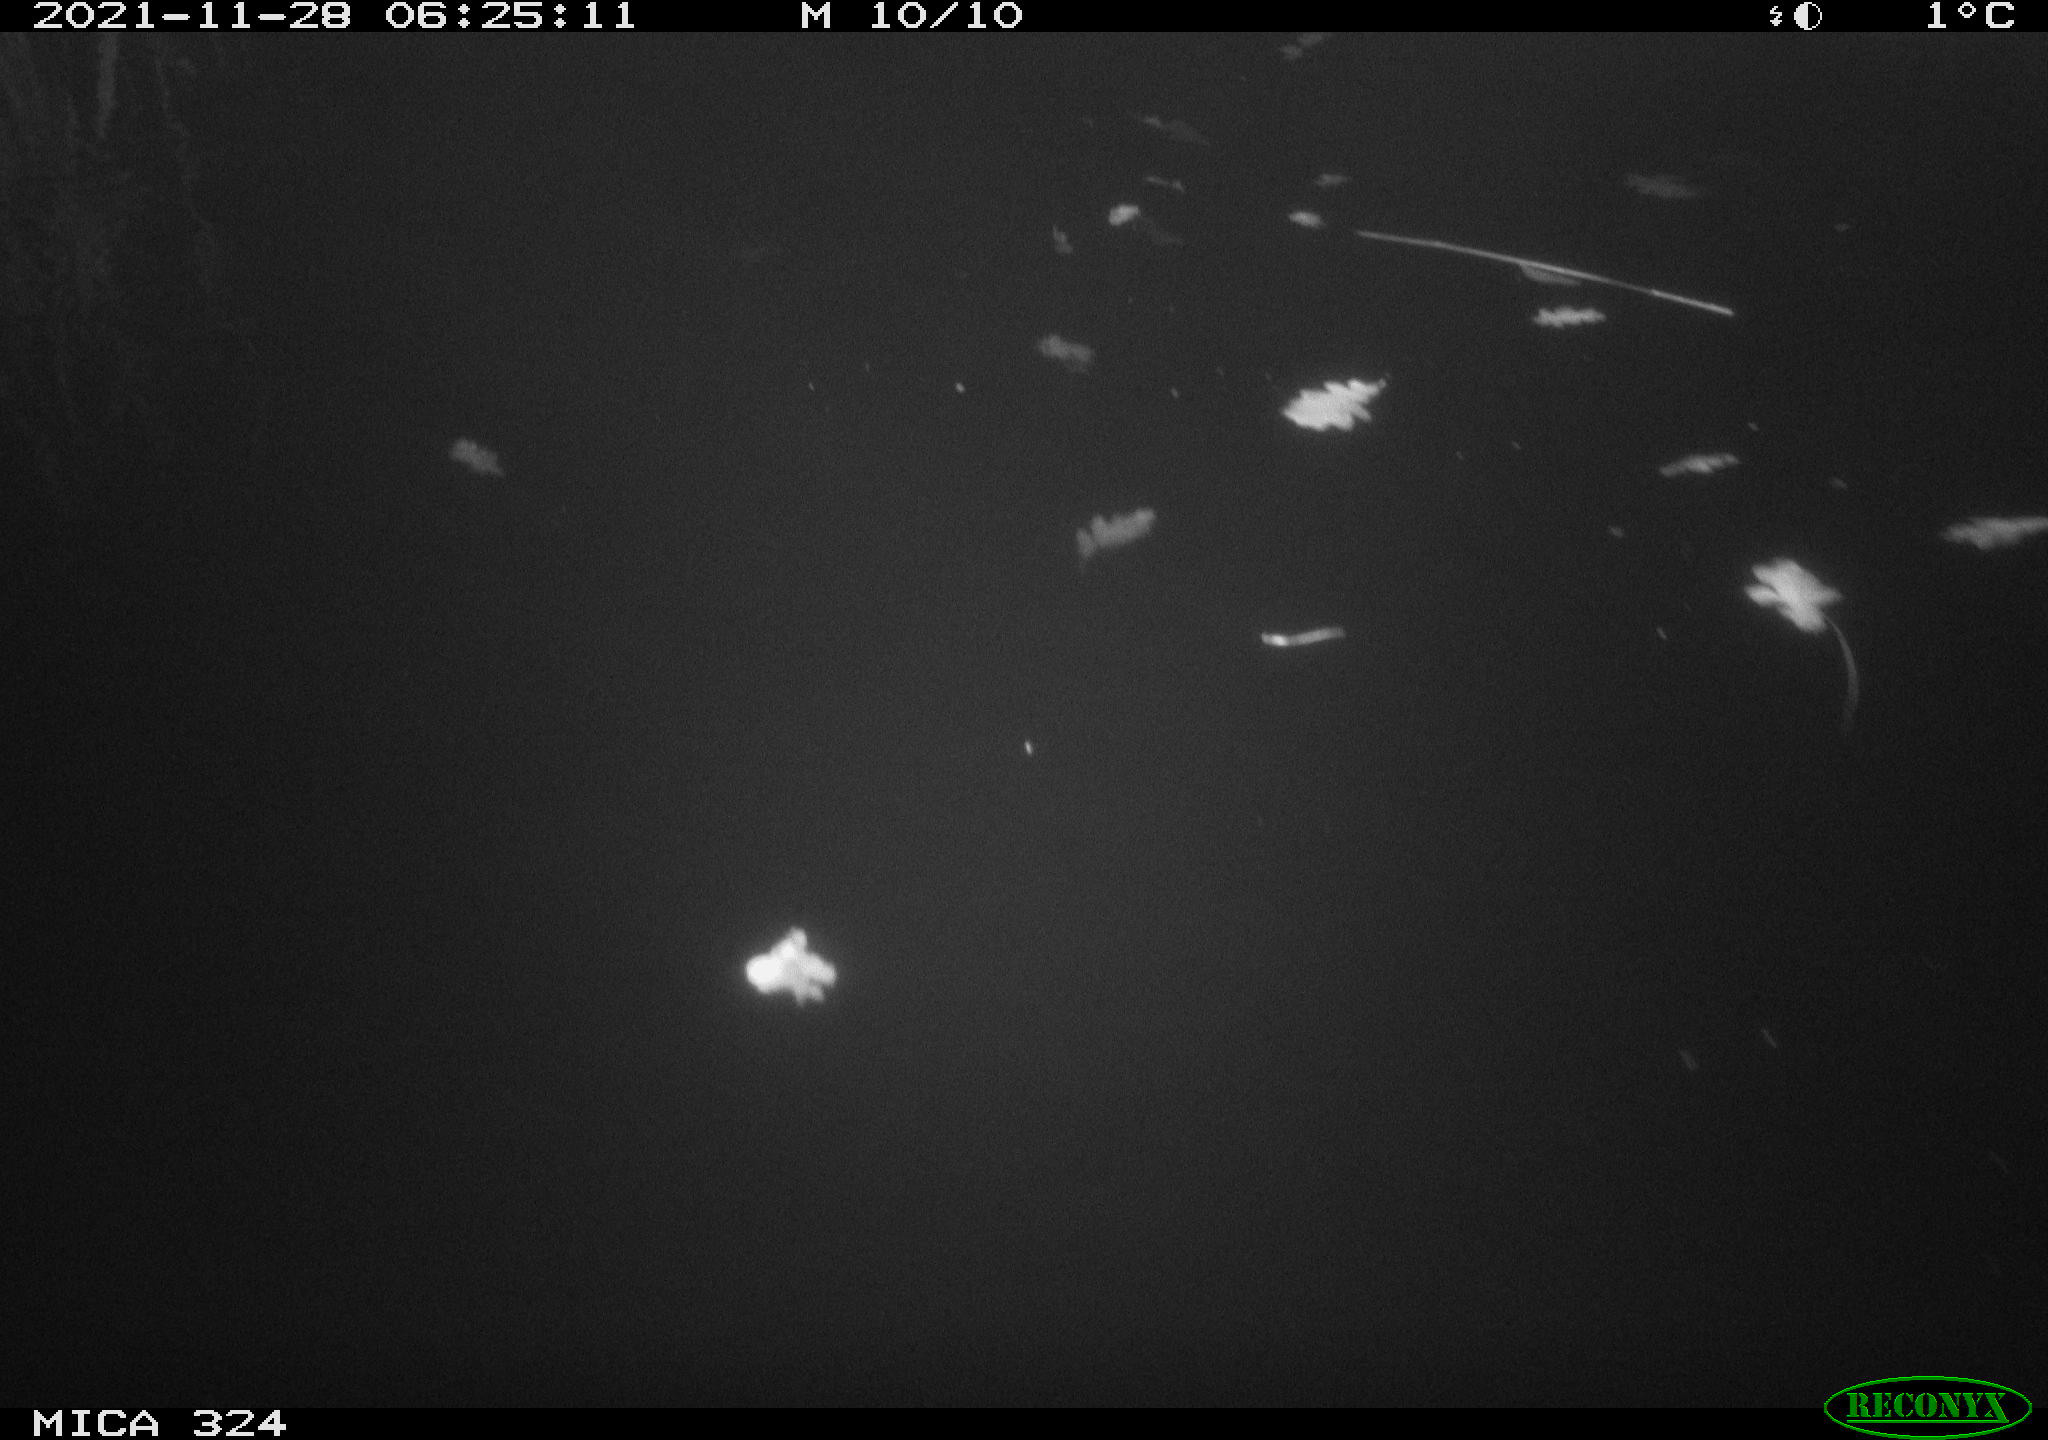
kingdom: Animalia
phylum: Chordata
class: Mammalia
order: Rodentia
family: Cricetidae
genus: Ondatra
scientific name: Ondatra zibethicus
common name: Muskrat
